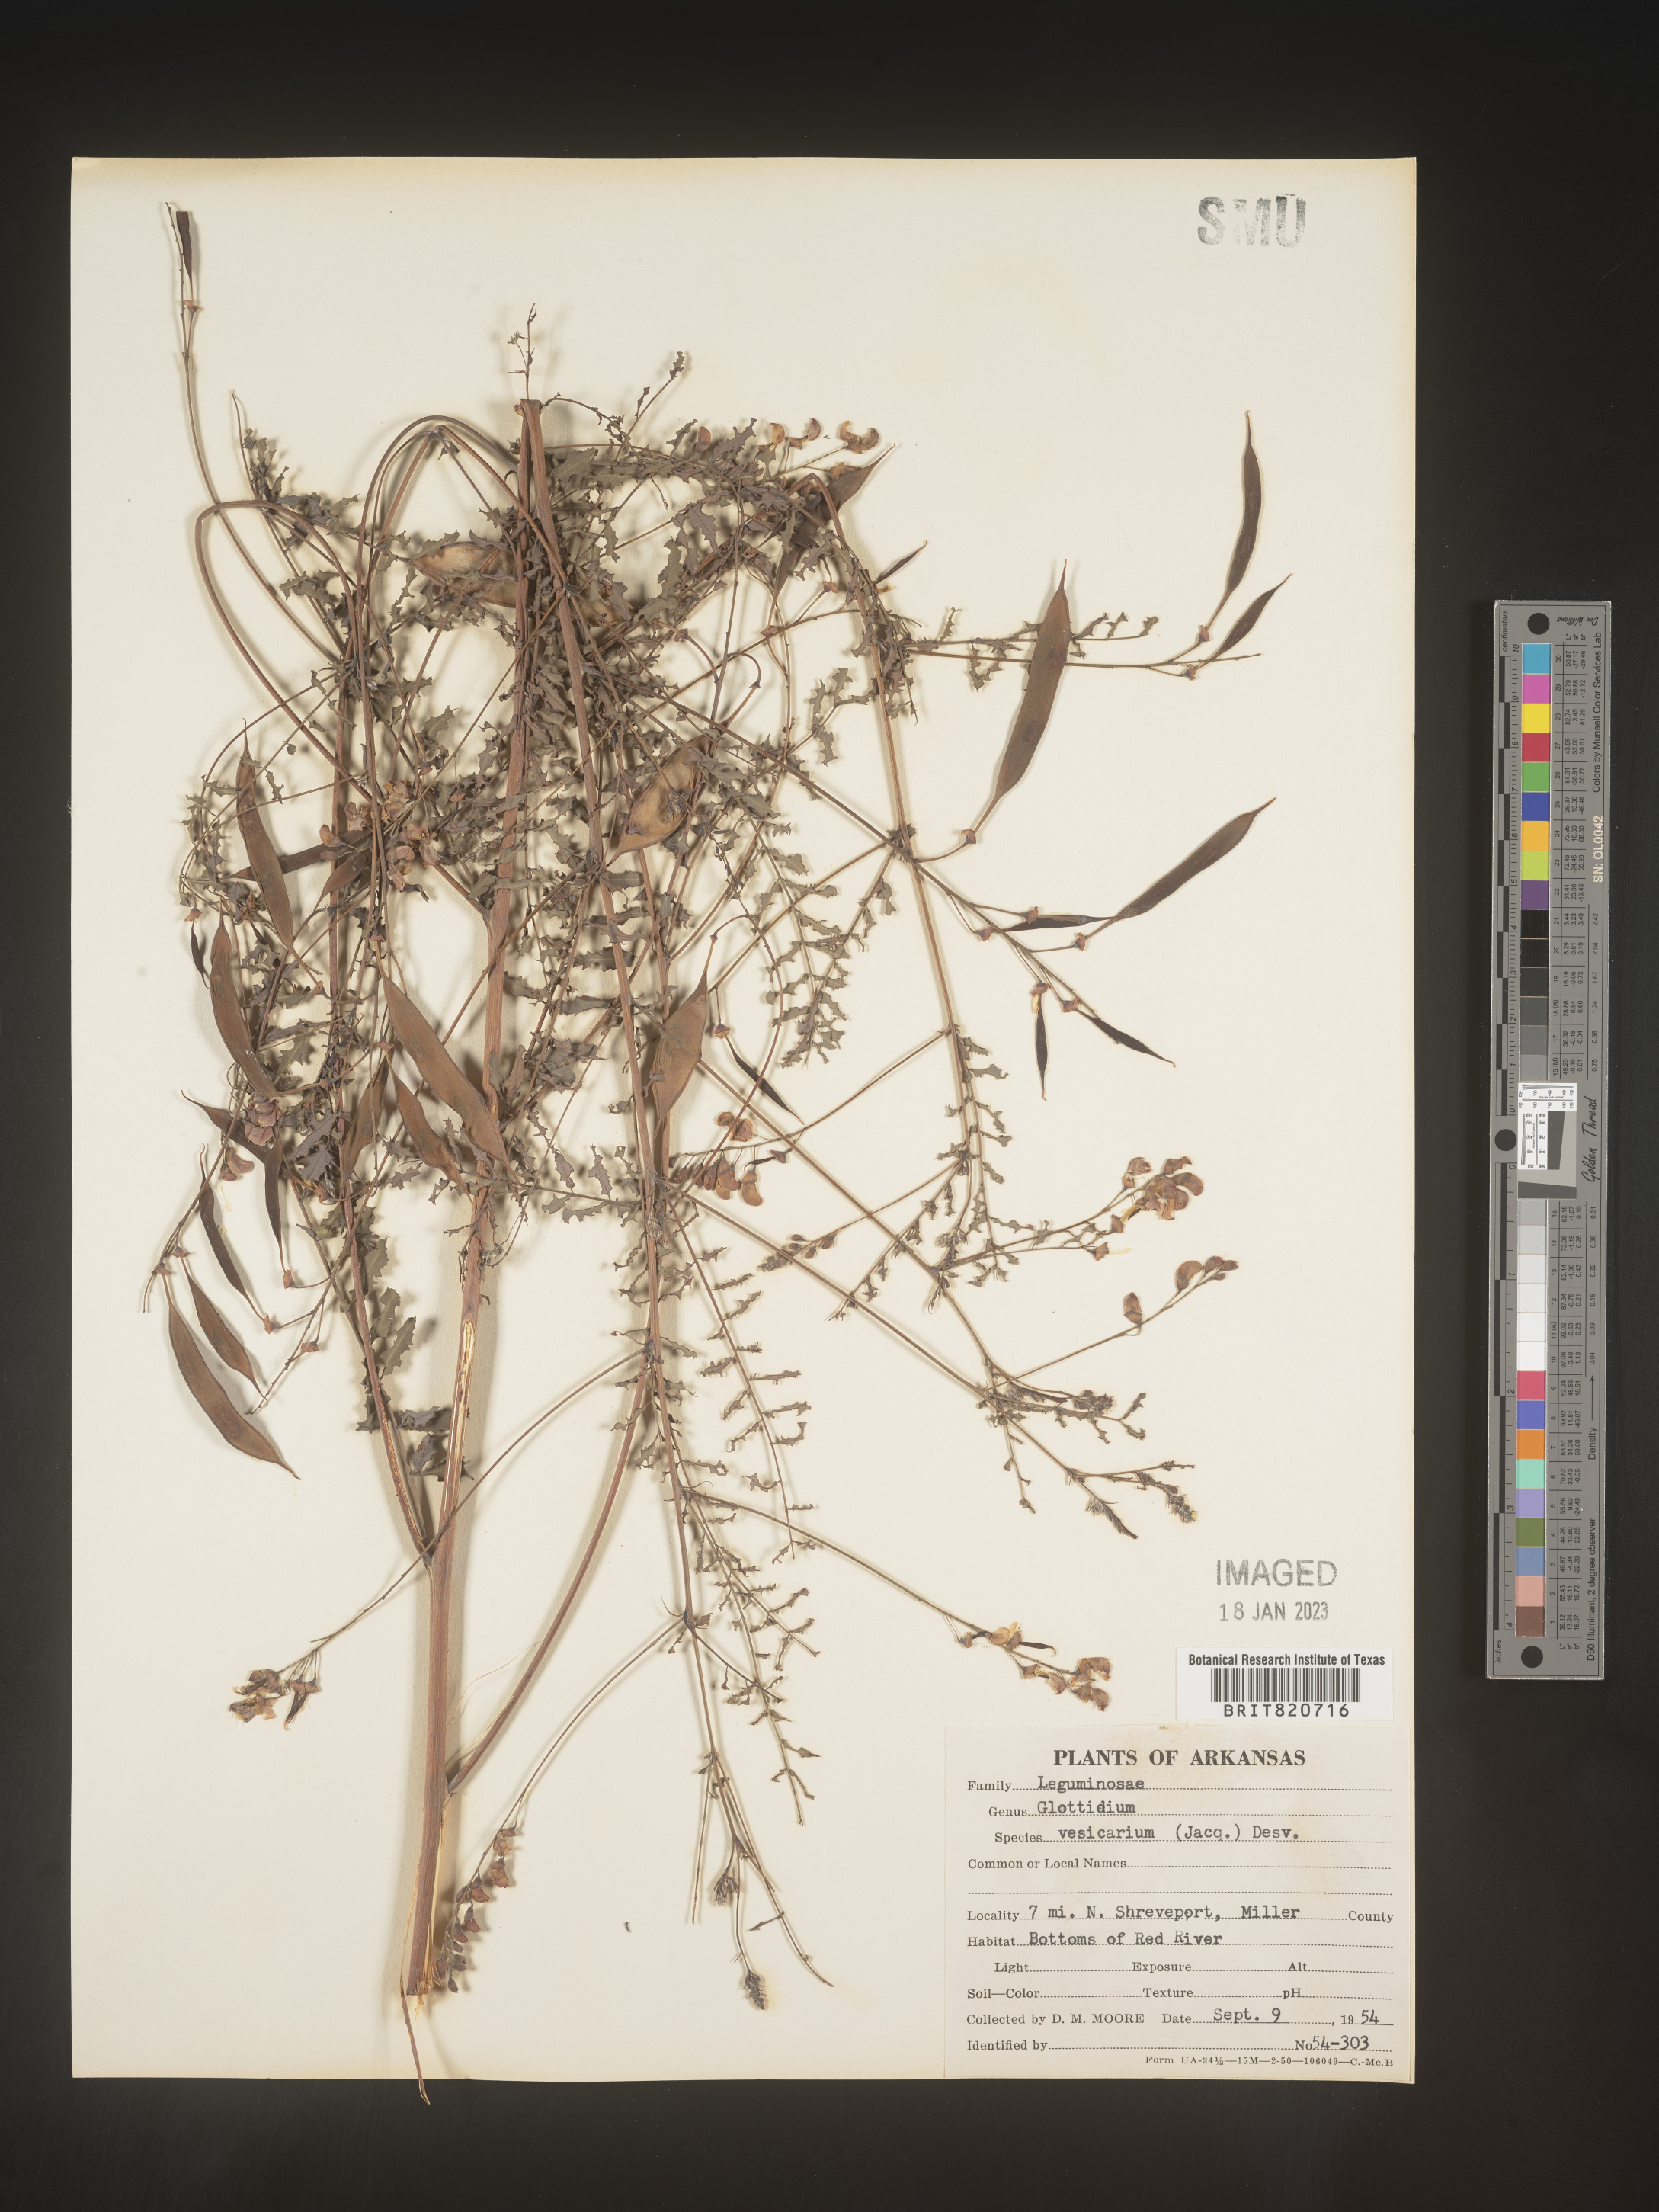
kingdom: Plantae
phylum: Tracheophyta
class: Magnoliopsida
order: Fabales
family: Fabaceae
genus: Sesbania
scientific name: Sesbania vesicaria
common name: Bagpod
